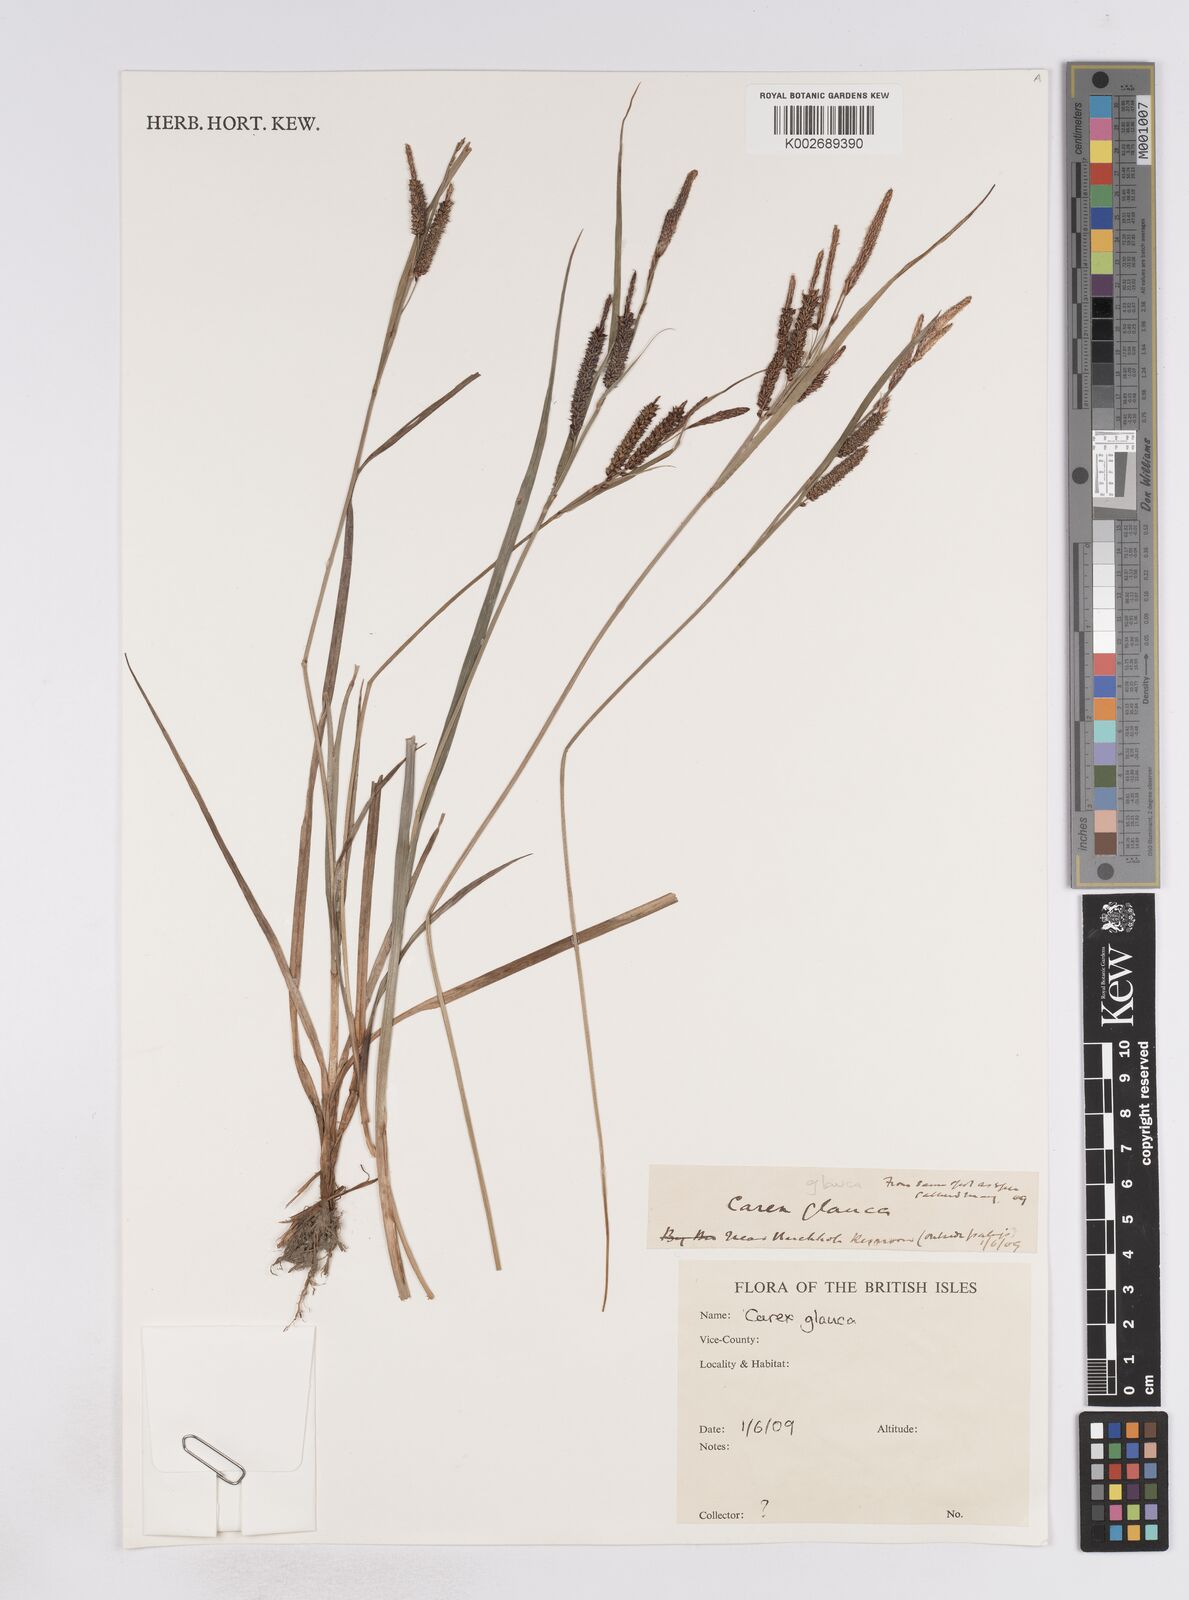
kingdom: Plantae
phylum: Tracheophyta
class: Liliopsida
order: Poales
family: Cyperaceae
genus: Carex
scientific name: Carex flacca
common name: Glaucous sedge
